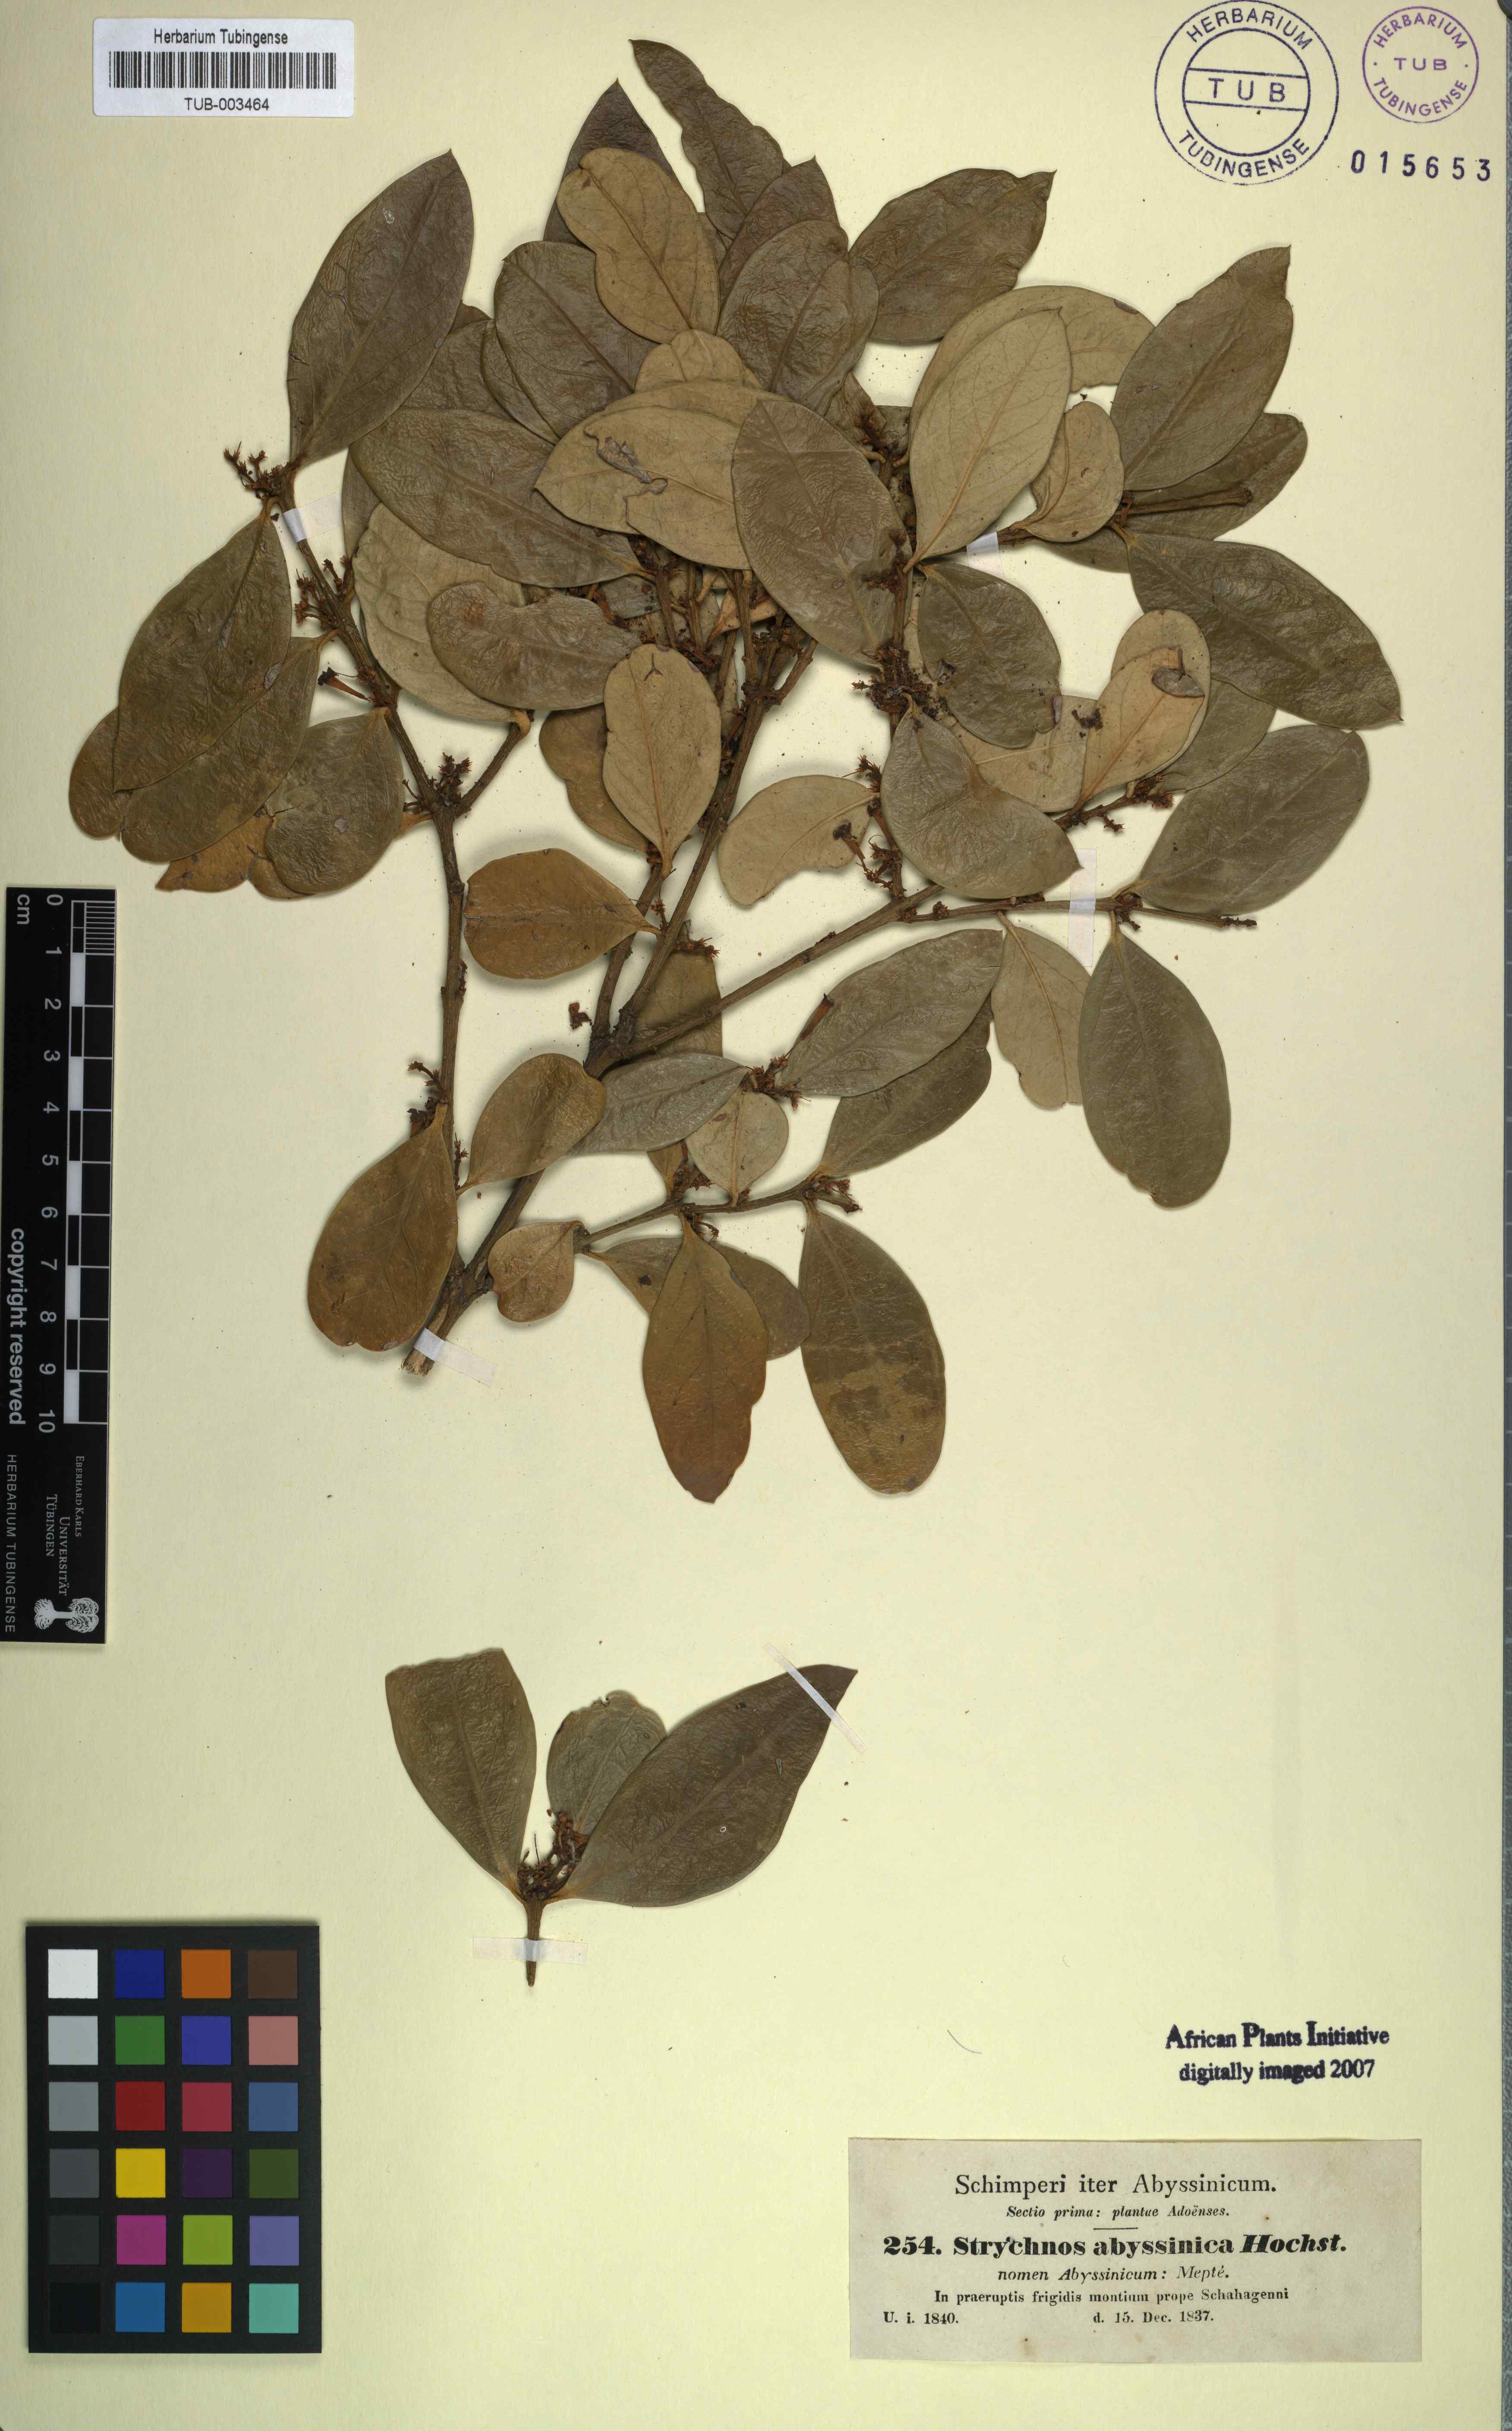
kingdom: Plantae
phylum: Tracheophyta
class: Magnoliopsida
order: Gentianales
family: Apocynaceae
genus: Carissa
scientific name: Carissa
